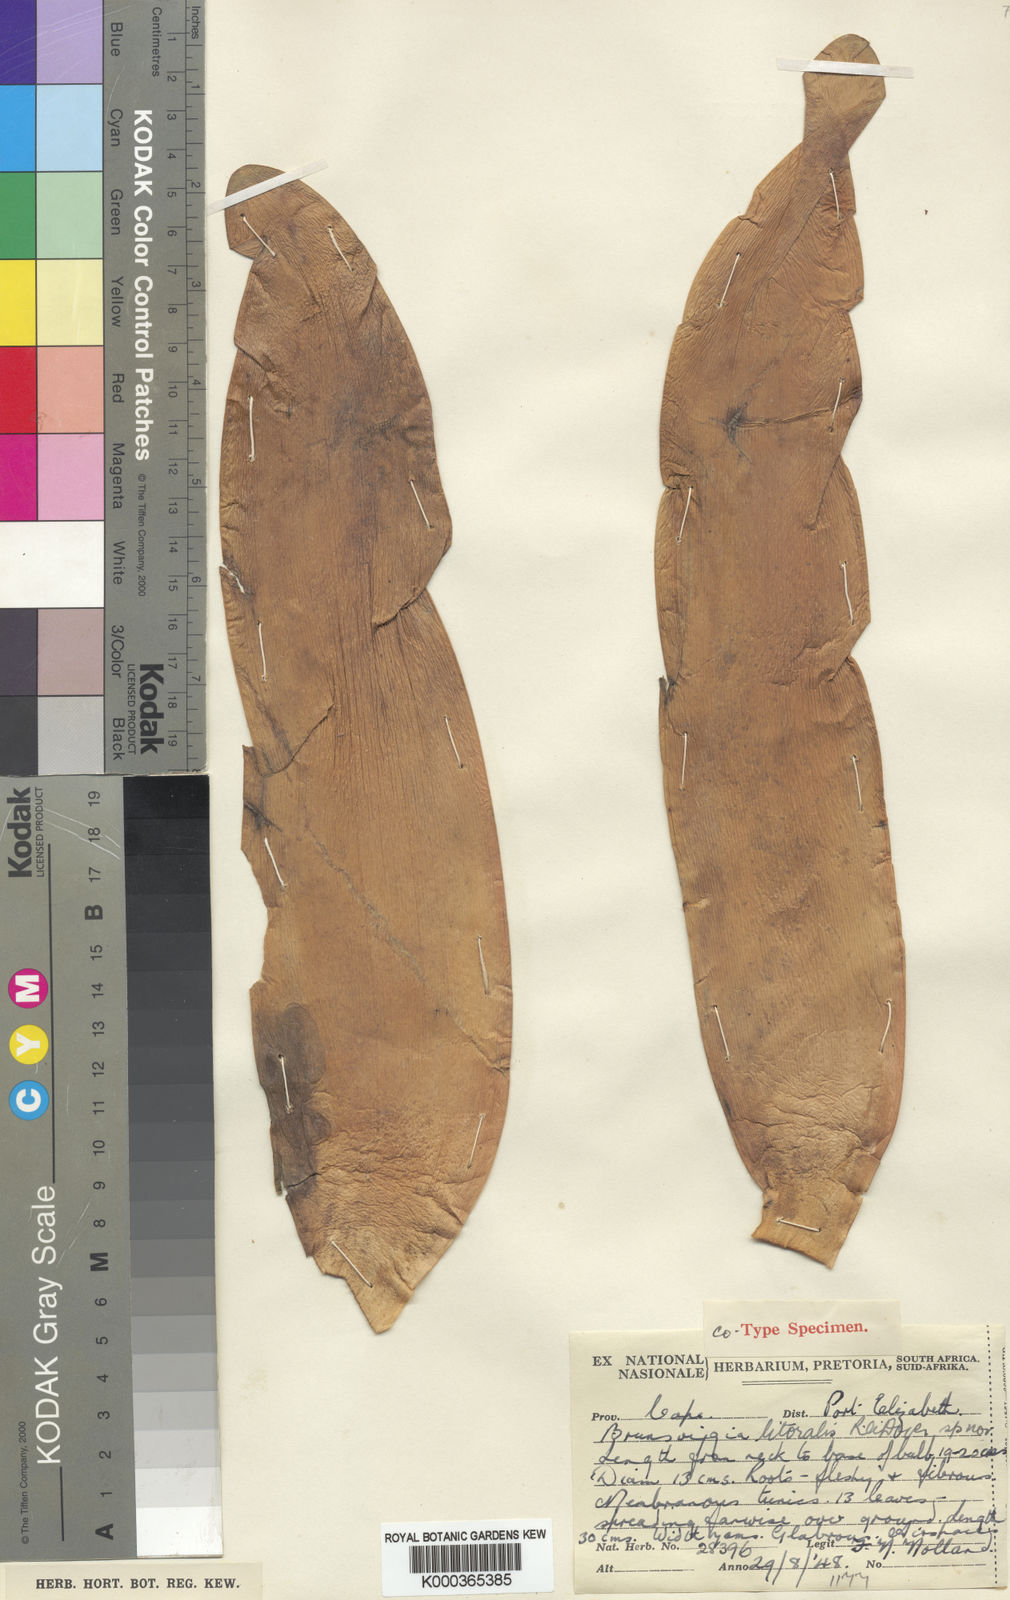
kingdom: Plantae
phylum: Tracheophyta
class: Liliopsida
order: Asparagales
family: Amaryllidaceae
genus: Brunsvigia
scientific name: Brunsvigia litoralis
